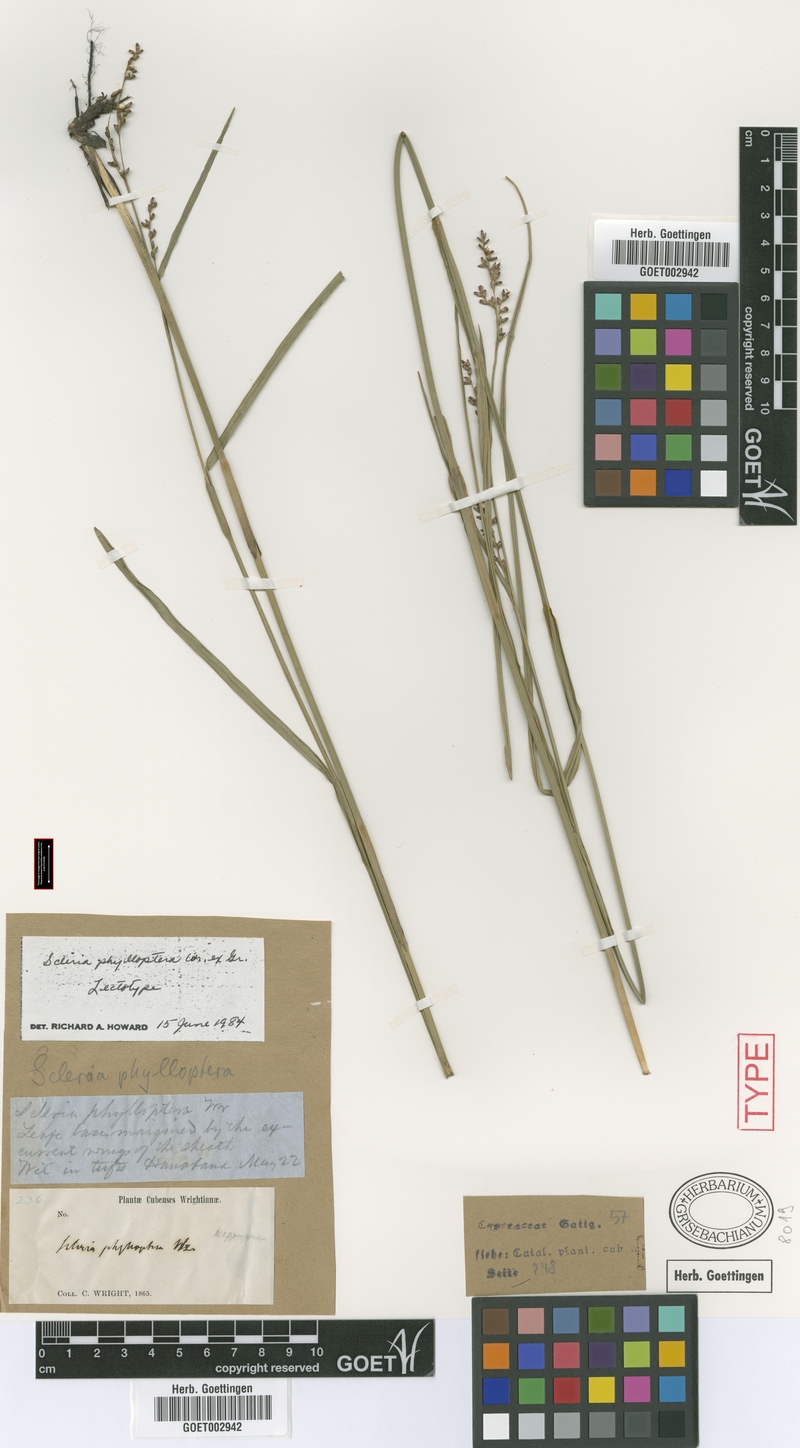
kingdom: Plantae
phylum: Tracheophyta
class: Liliopsida
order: Poales
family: Cyperaceae
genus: Scleria
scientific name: Scleria testacea
